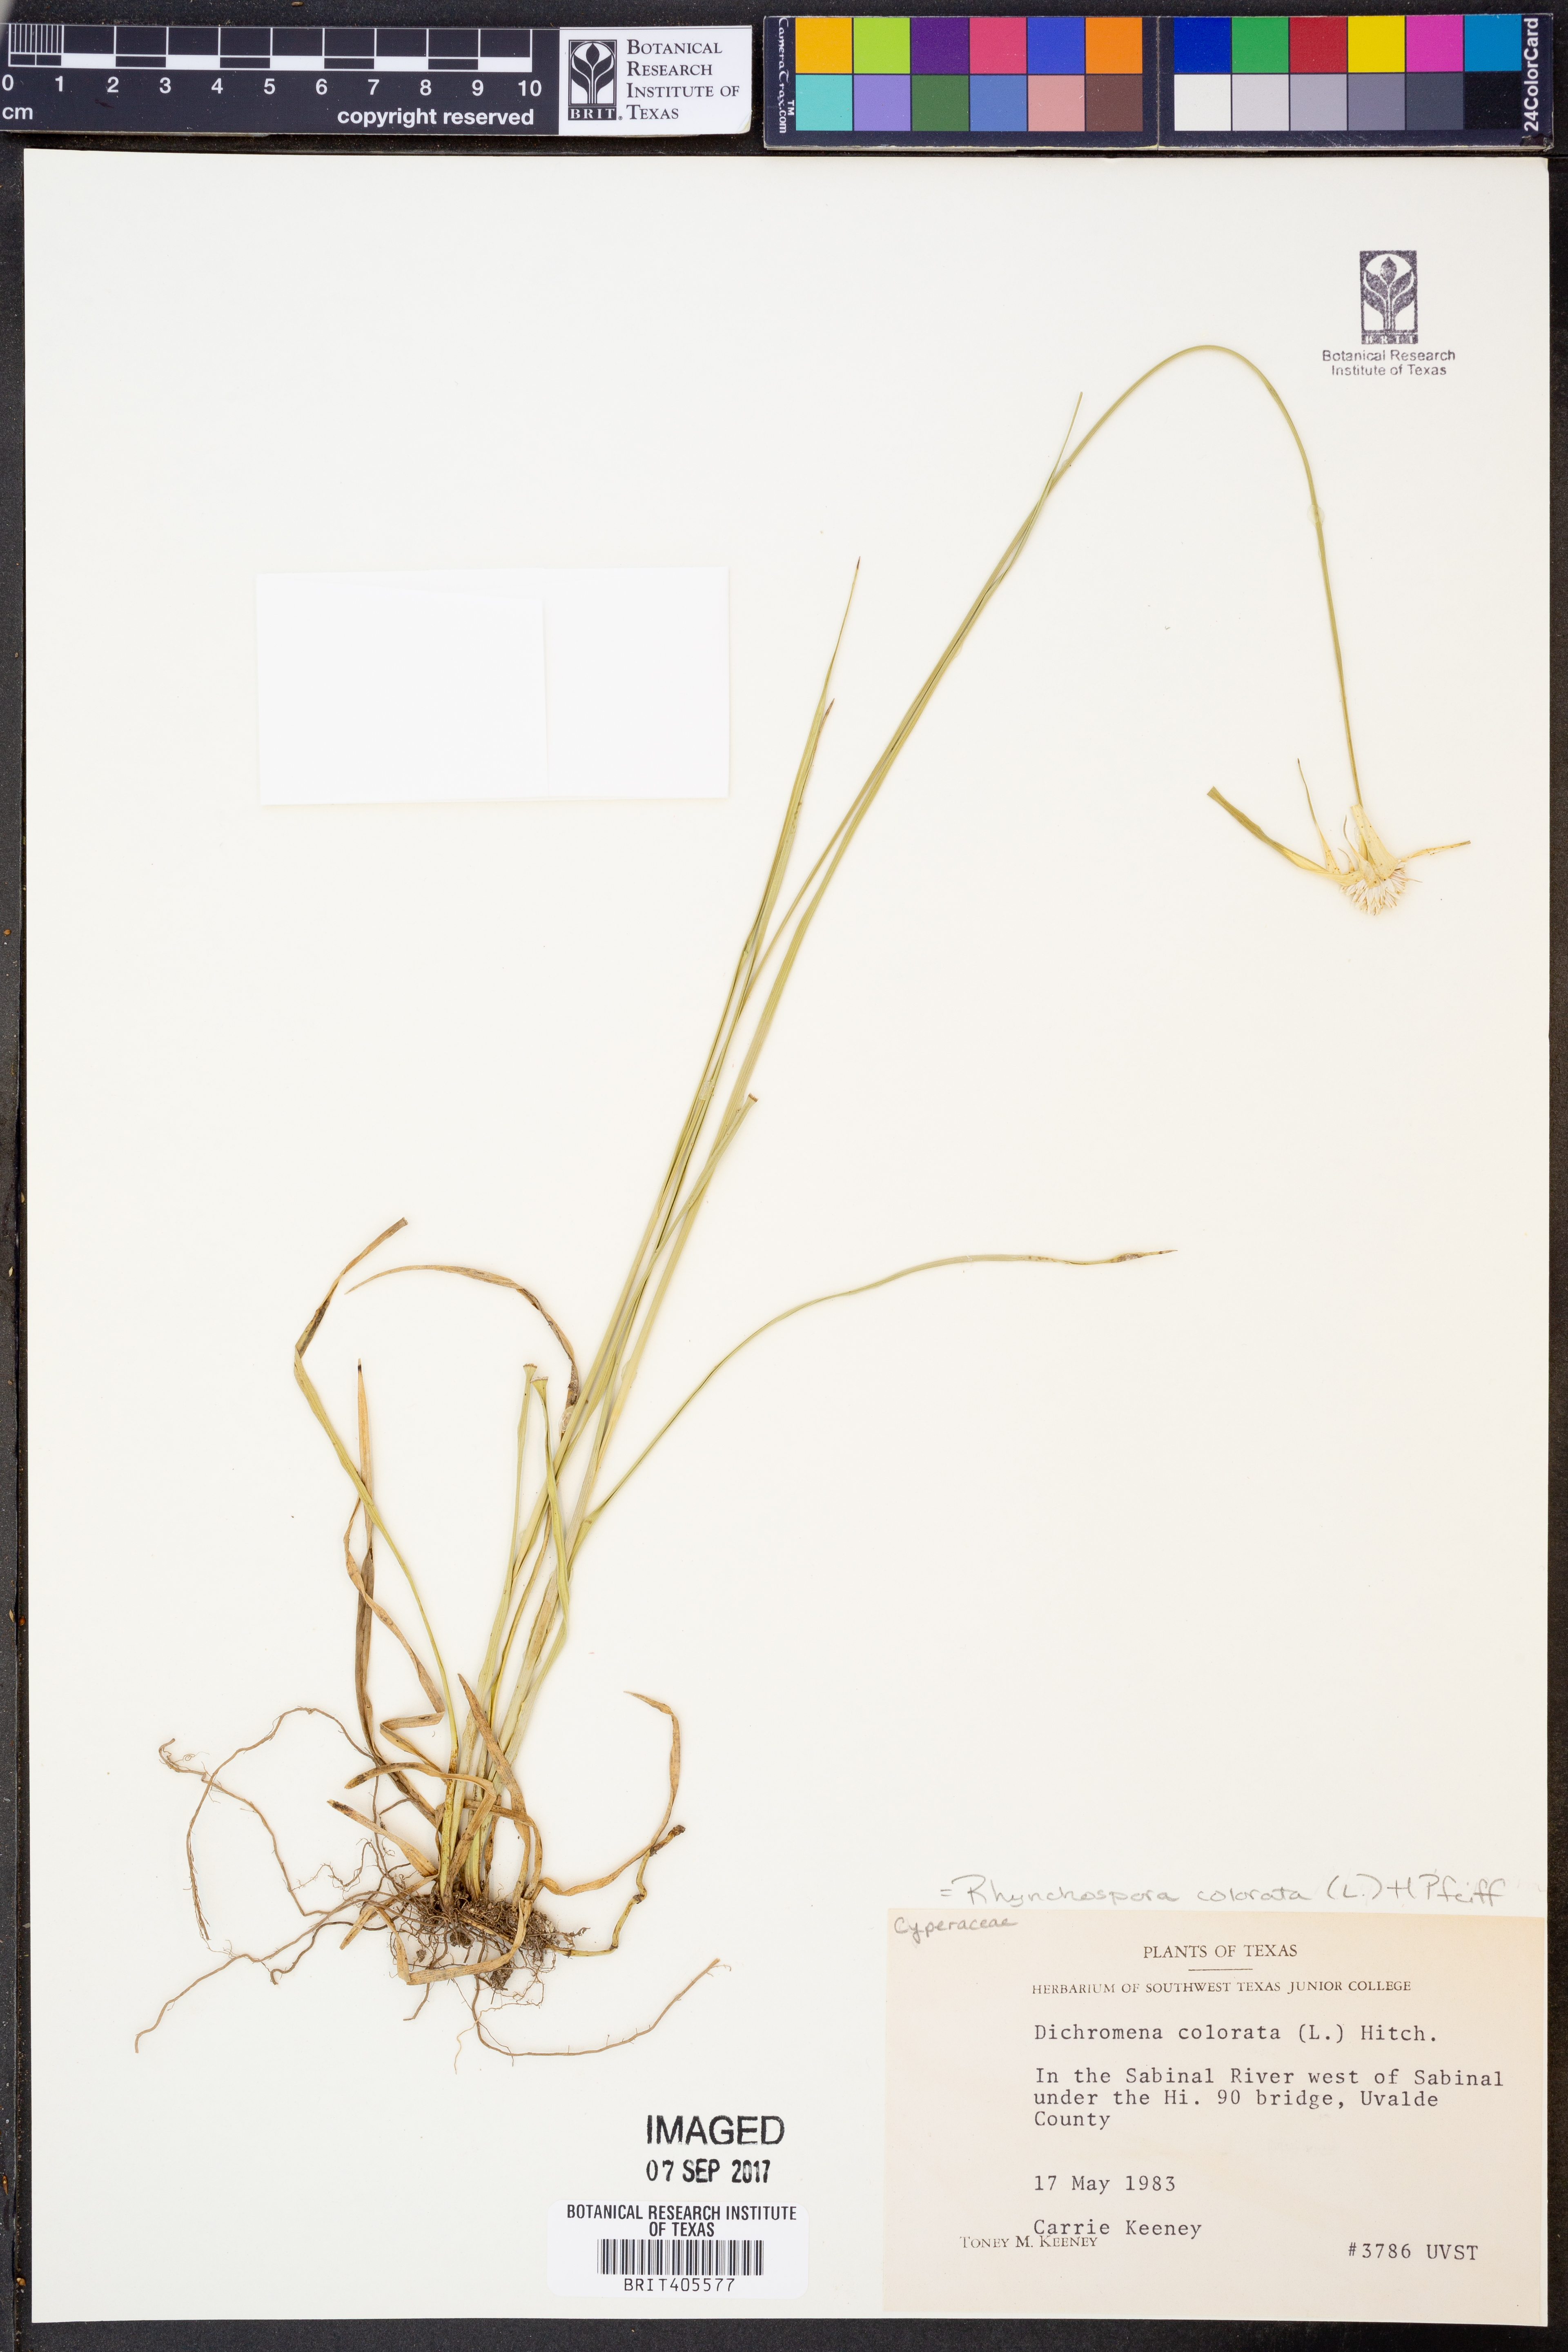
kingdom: Plantae
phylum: Tracheophyta
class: Liliopsida
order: Poales
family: Cyperaceae
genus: Rhynchospora
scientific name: Rhynchospora colorata
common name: Star sedge
